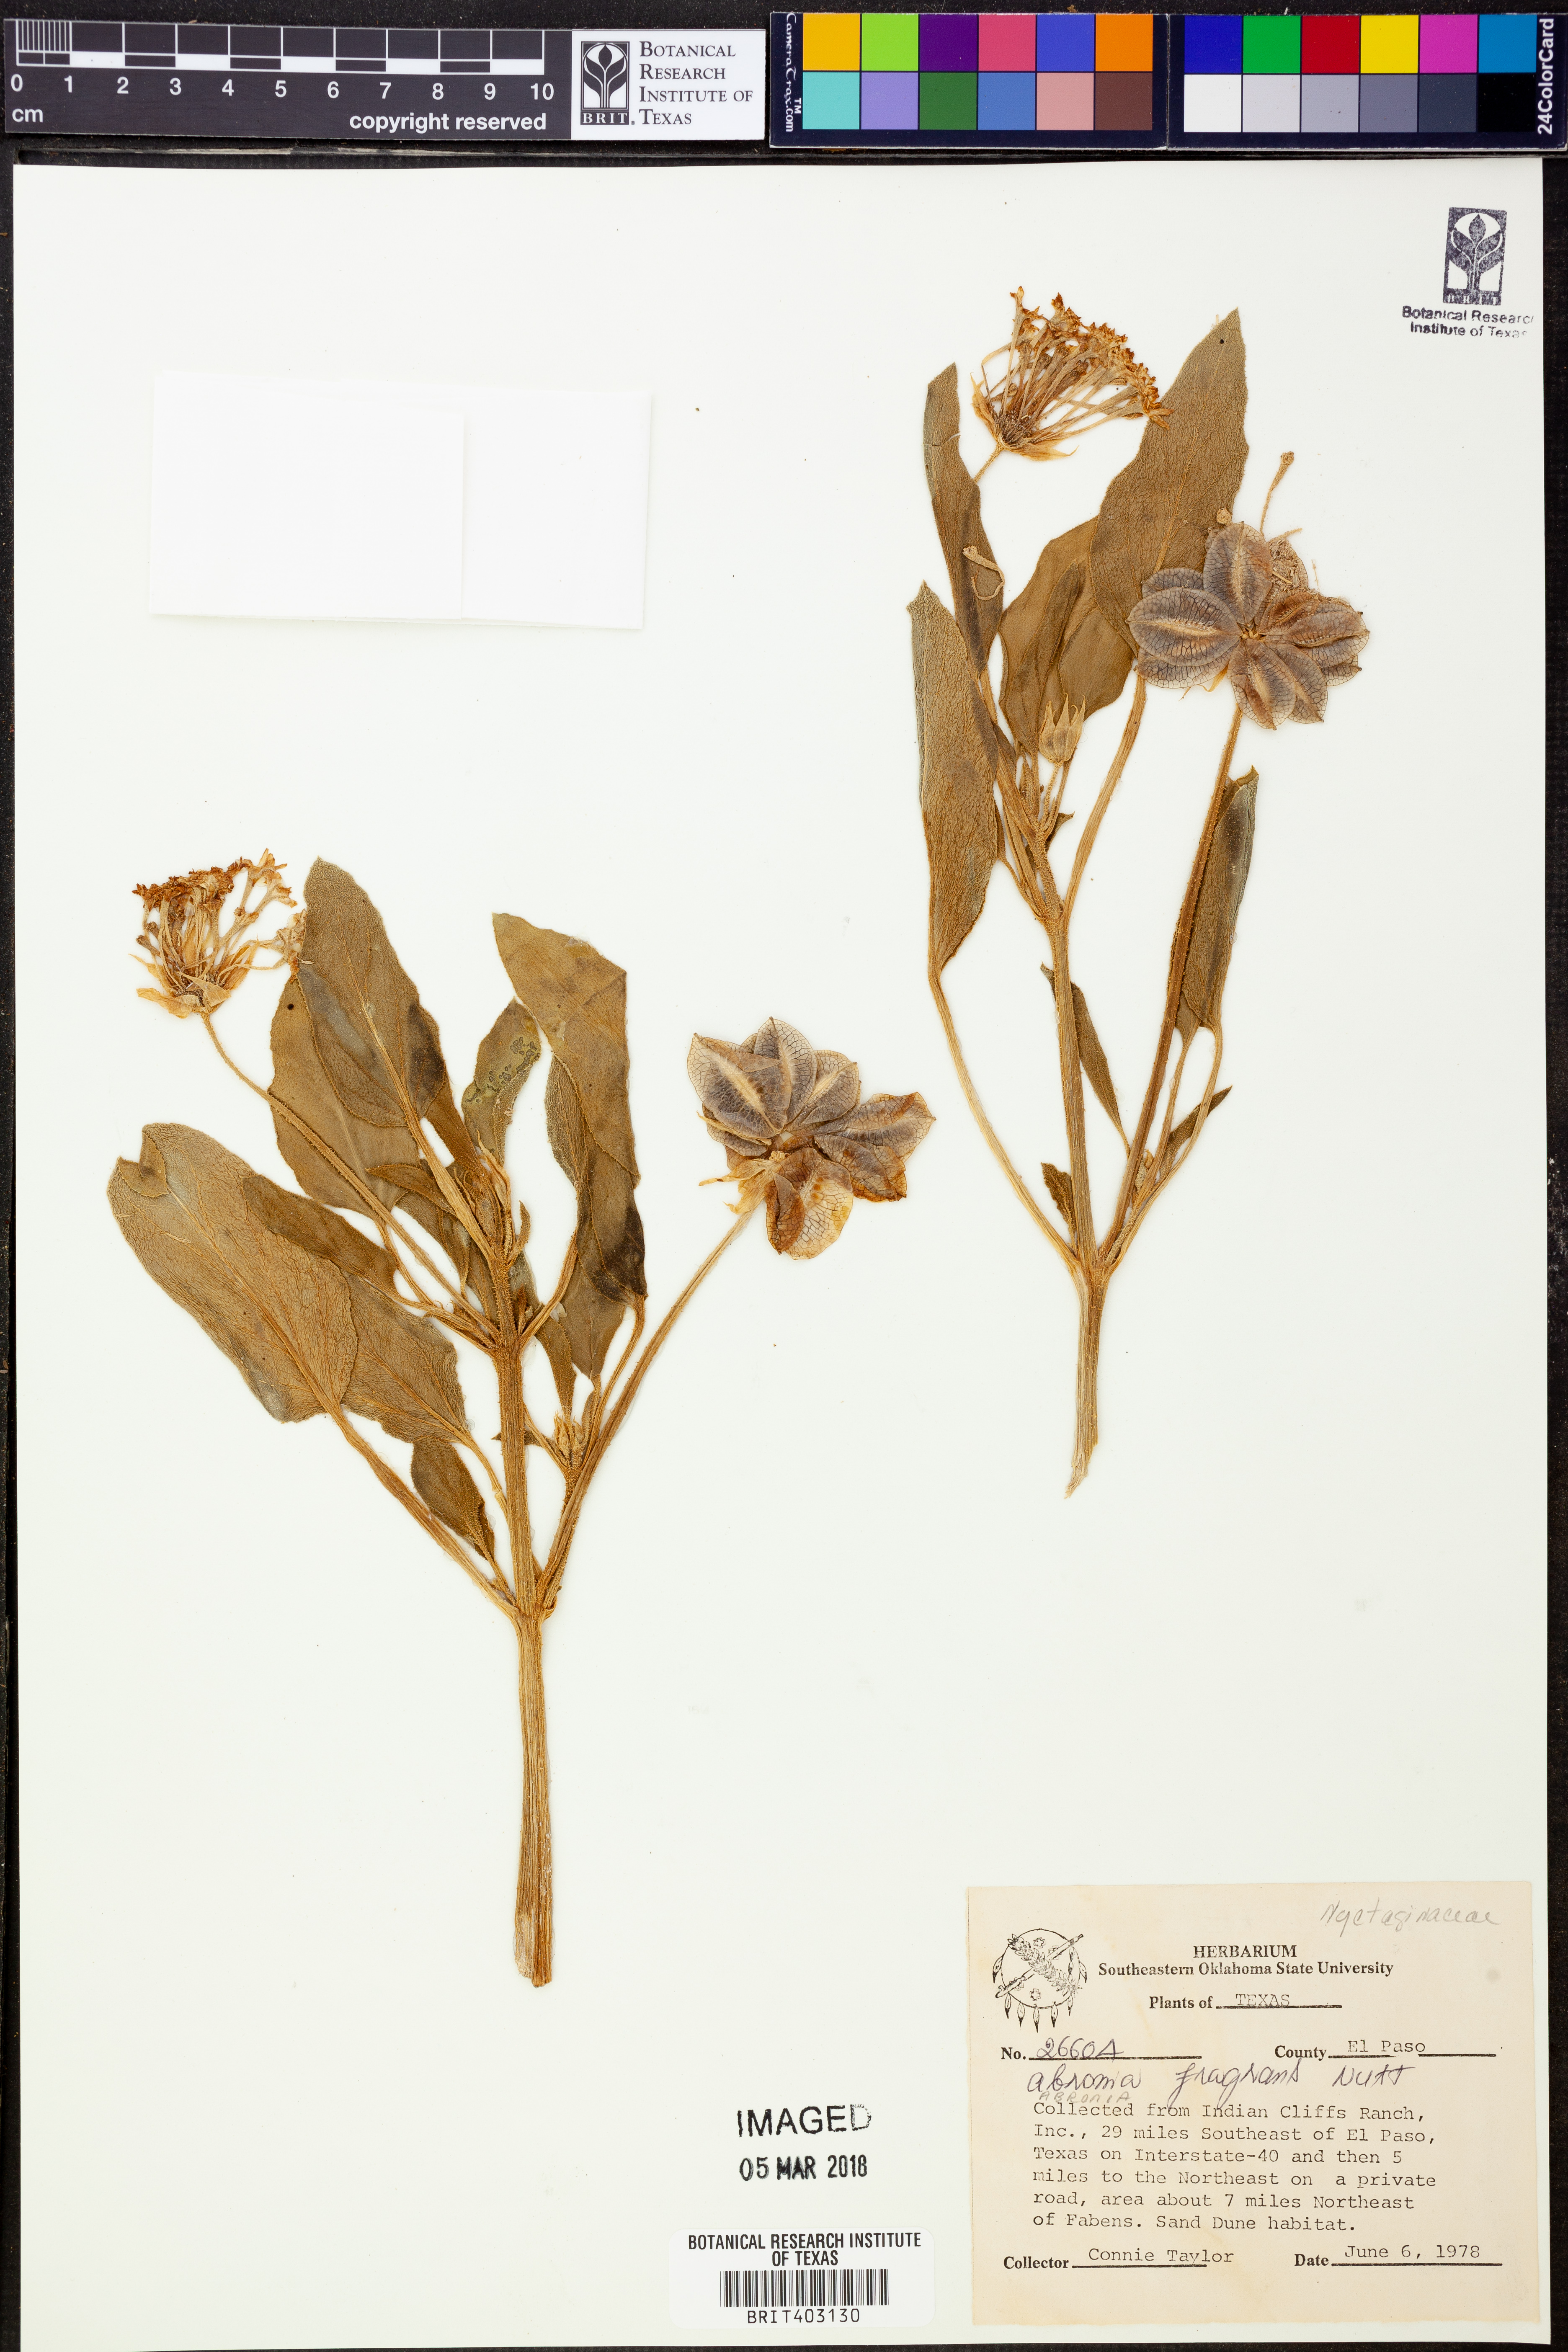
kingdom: Plantae
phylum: Tracheophyta
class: Magnoliopsida
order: Caryophyllales
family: Nyctaginaceae
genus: Abronia
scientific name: Abronia fragrans
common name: Fragrant sand-verbena
